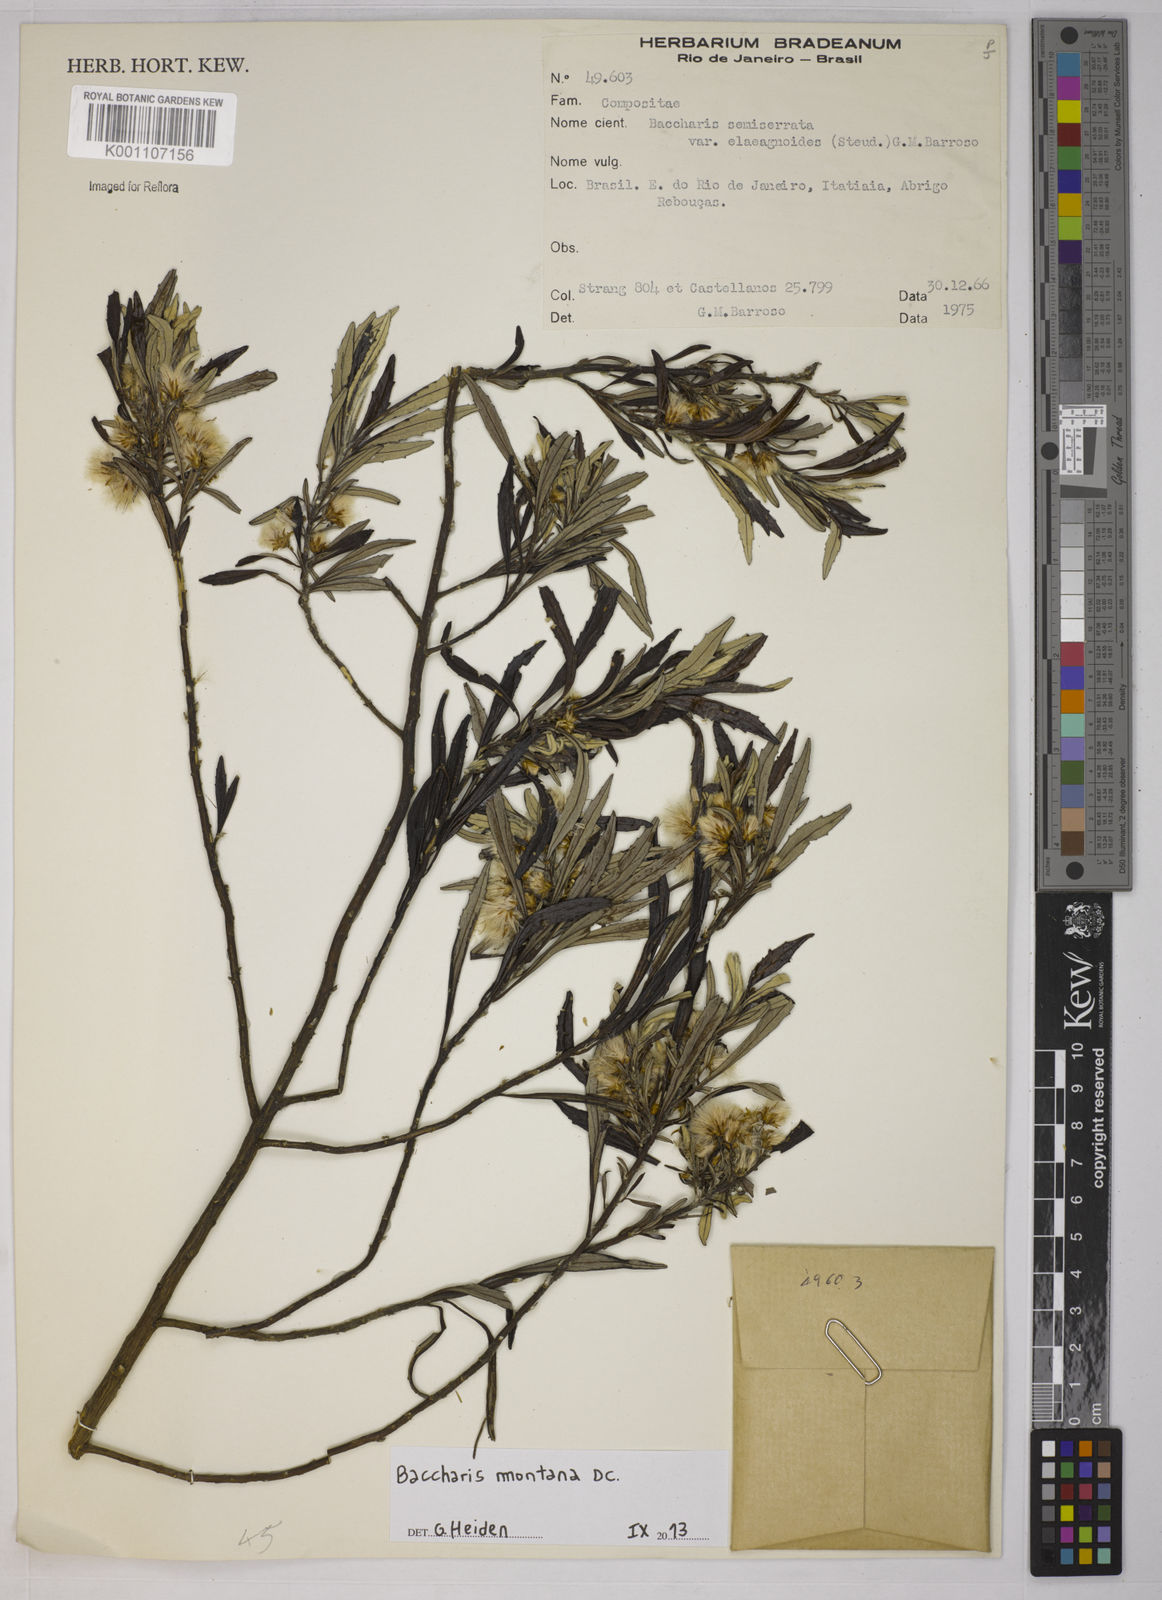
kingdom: Plantae
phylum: Tracheophyta
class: Magnoliopsida
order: Asterales
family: Asteraceae
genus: Baccharis
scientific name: Baccharis montana
